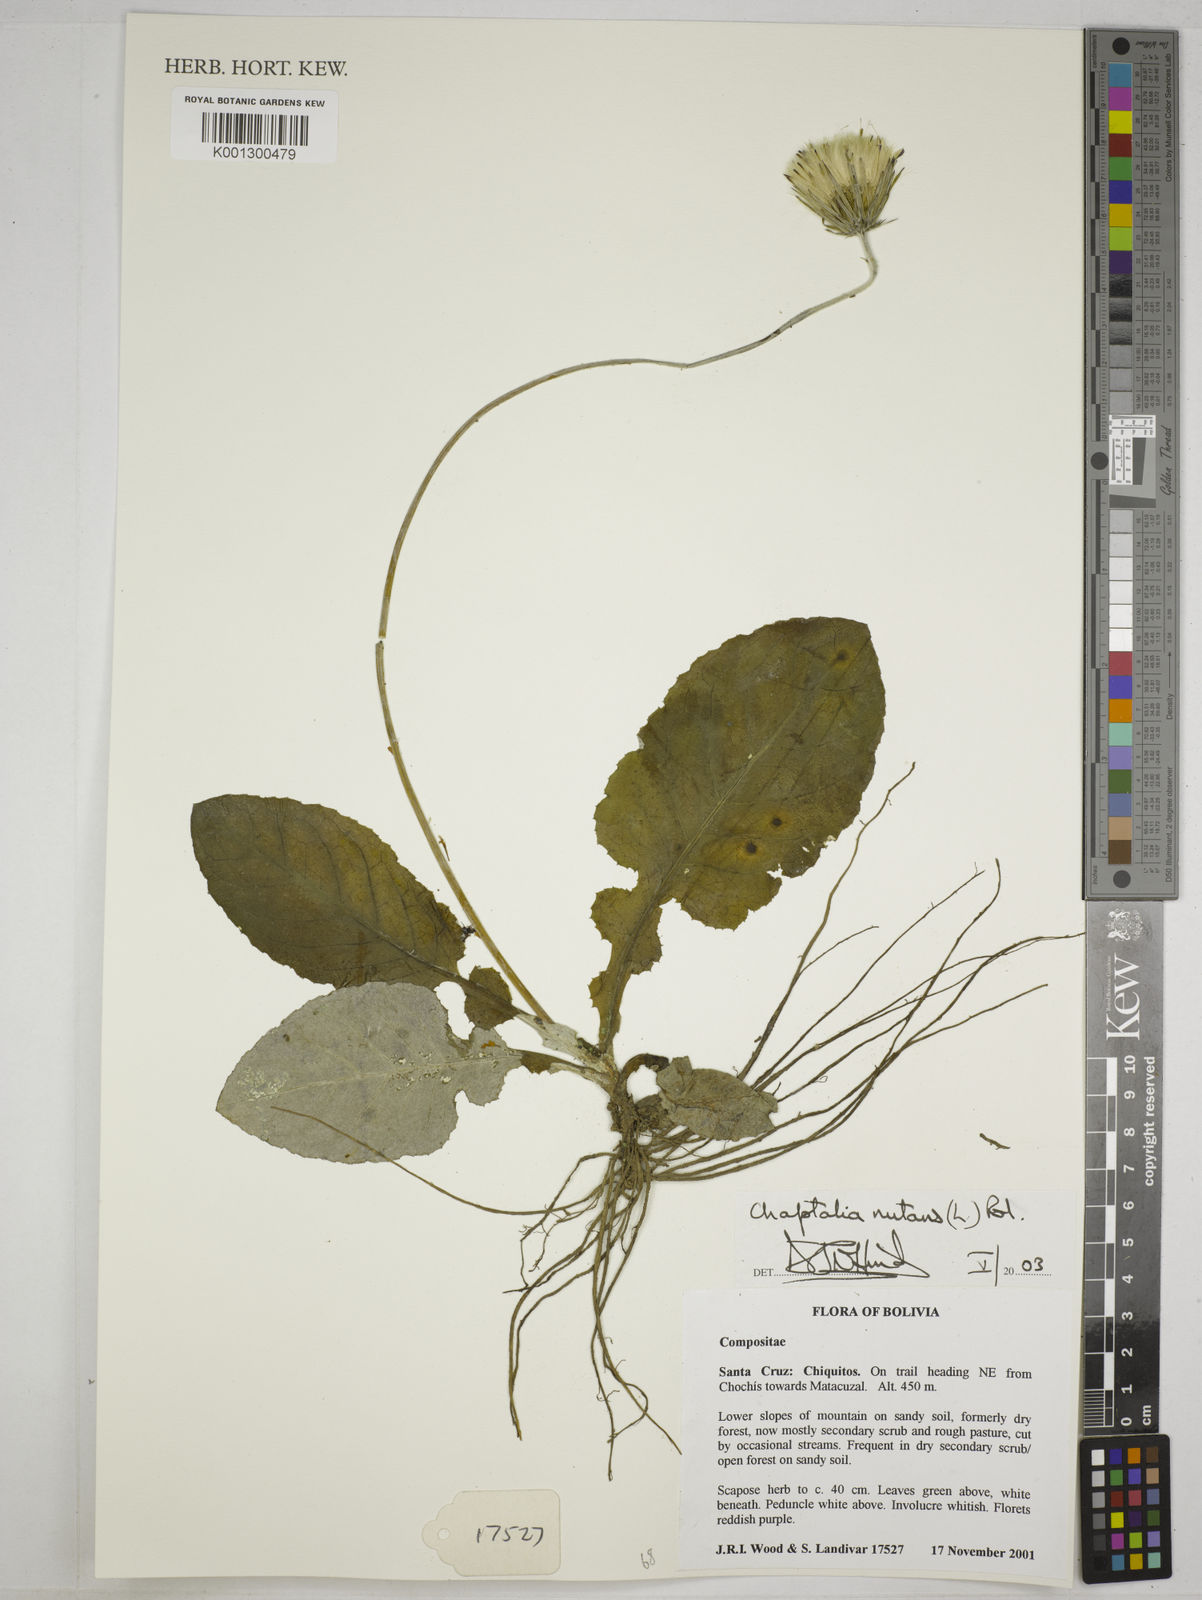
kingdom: Plantae
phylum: Tracheophyta
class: Magnoliopsida
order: Asterales
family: Asteraceae
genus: Chaptalia
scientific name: Chaptalia nutans
